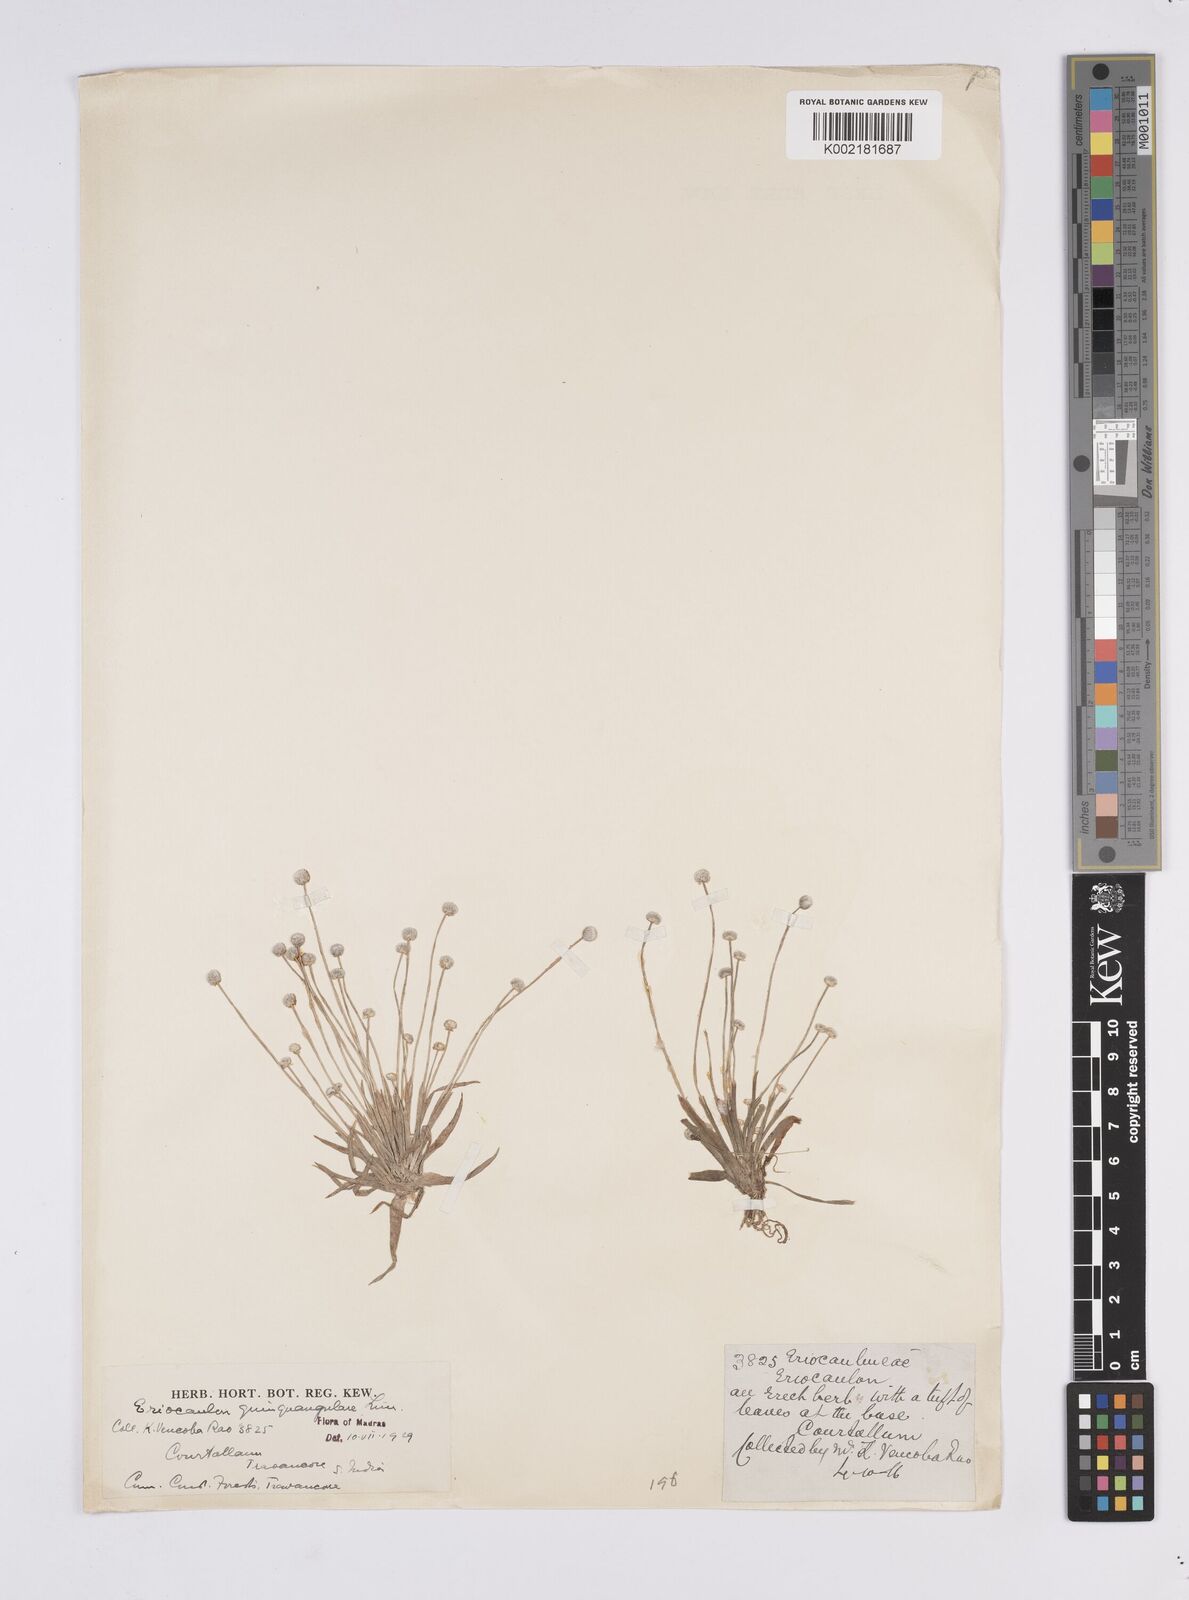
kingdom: Plantae
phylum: Tracheophyta
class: Liliopsida
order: Poales
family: Eriocaulaceae
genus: Eriocaulon
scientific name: Eriocaulon quinquangulare
